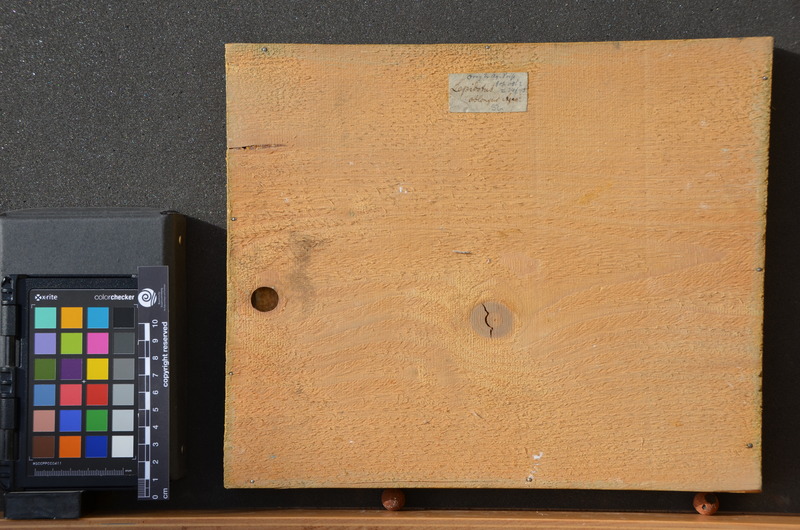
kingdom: Animalia
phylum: Chordata
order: Amiiformes
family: Caturidae
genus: Caturus
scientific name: Caturus furcatus
